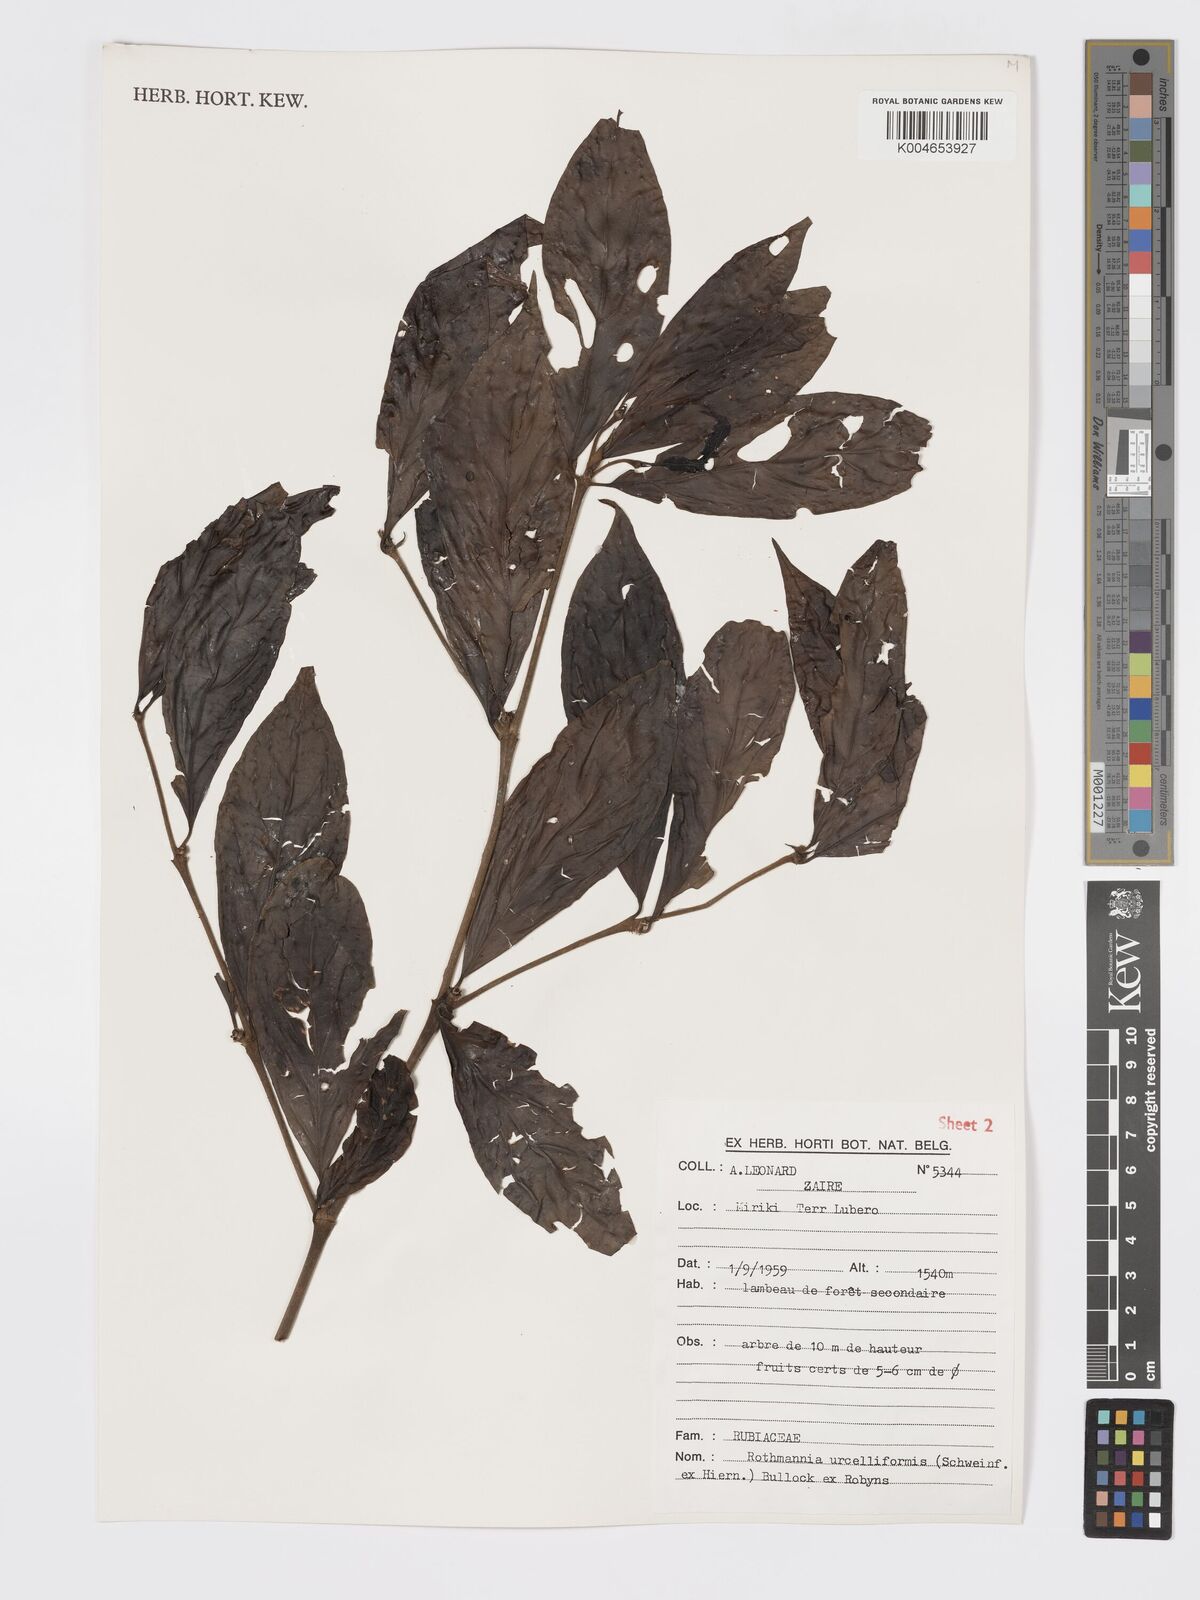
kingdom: Plantae
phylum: Tracheophyta
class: Magnoliopsida
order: Gentianales
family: Rubiaceae
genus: Rothmannia
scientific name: Rothmannia urcelliformis
